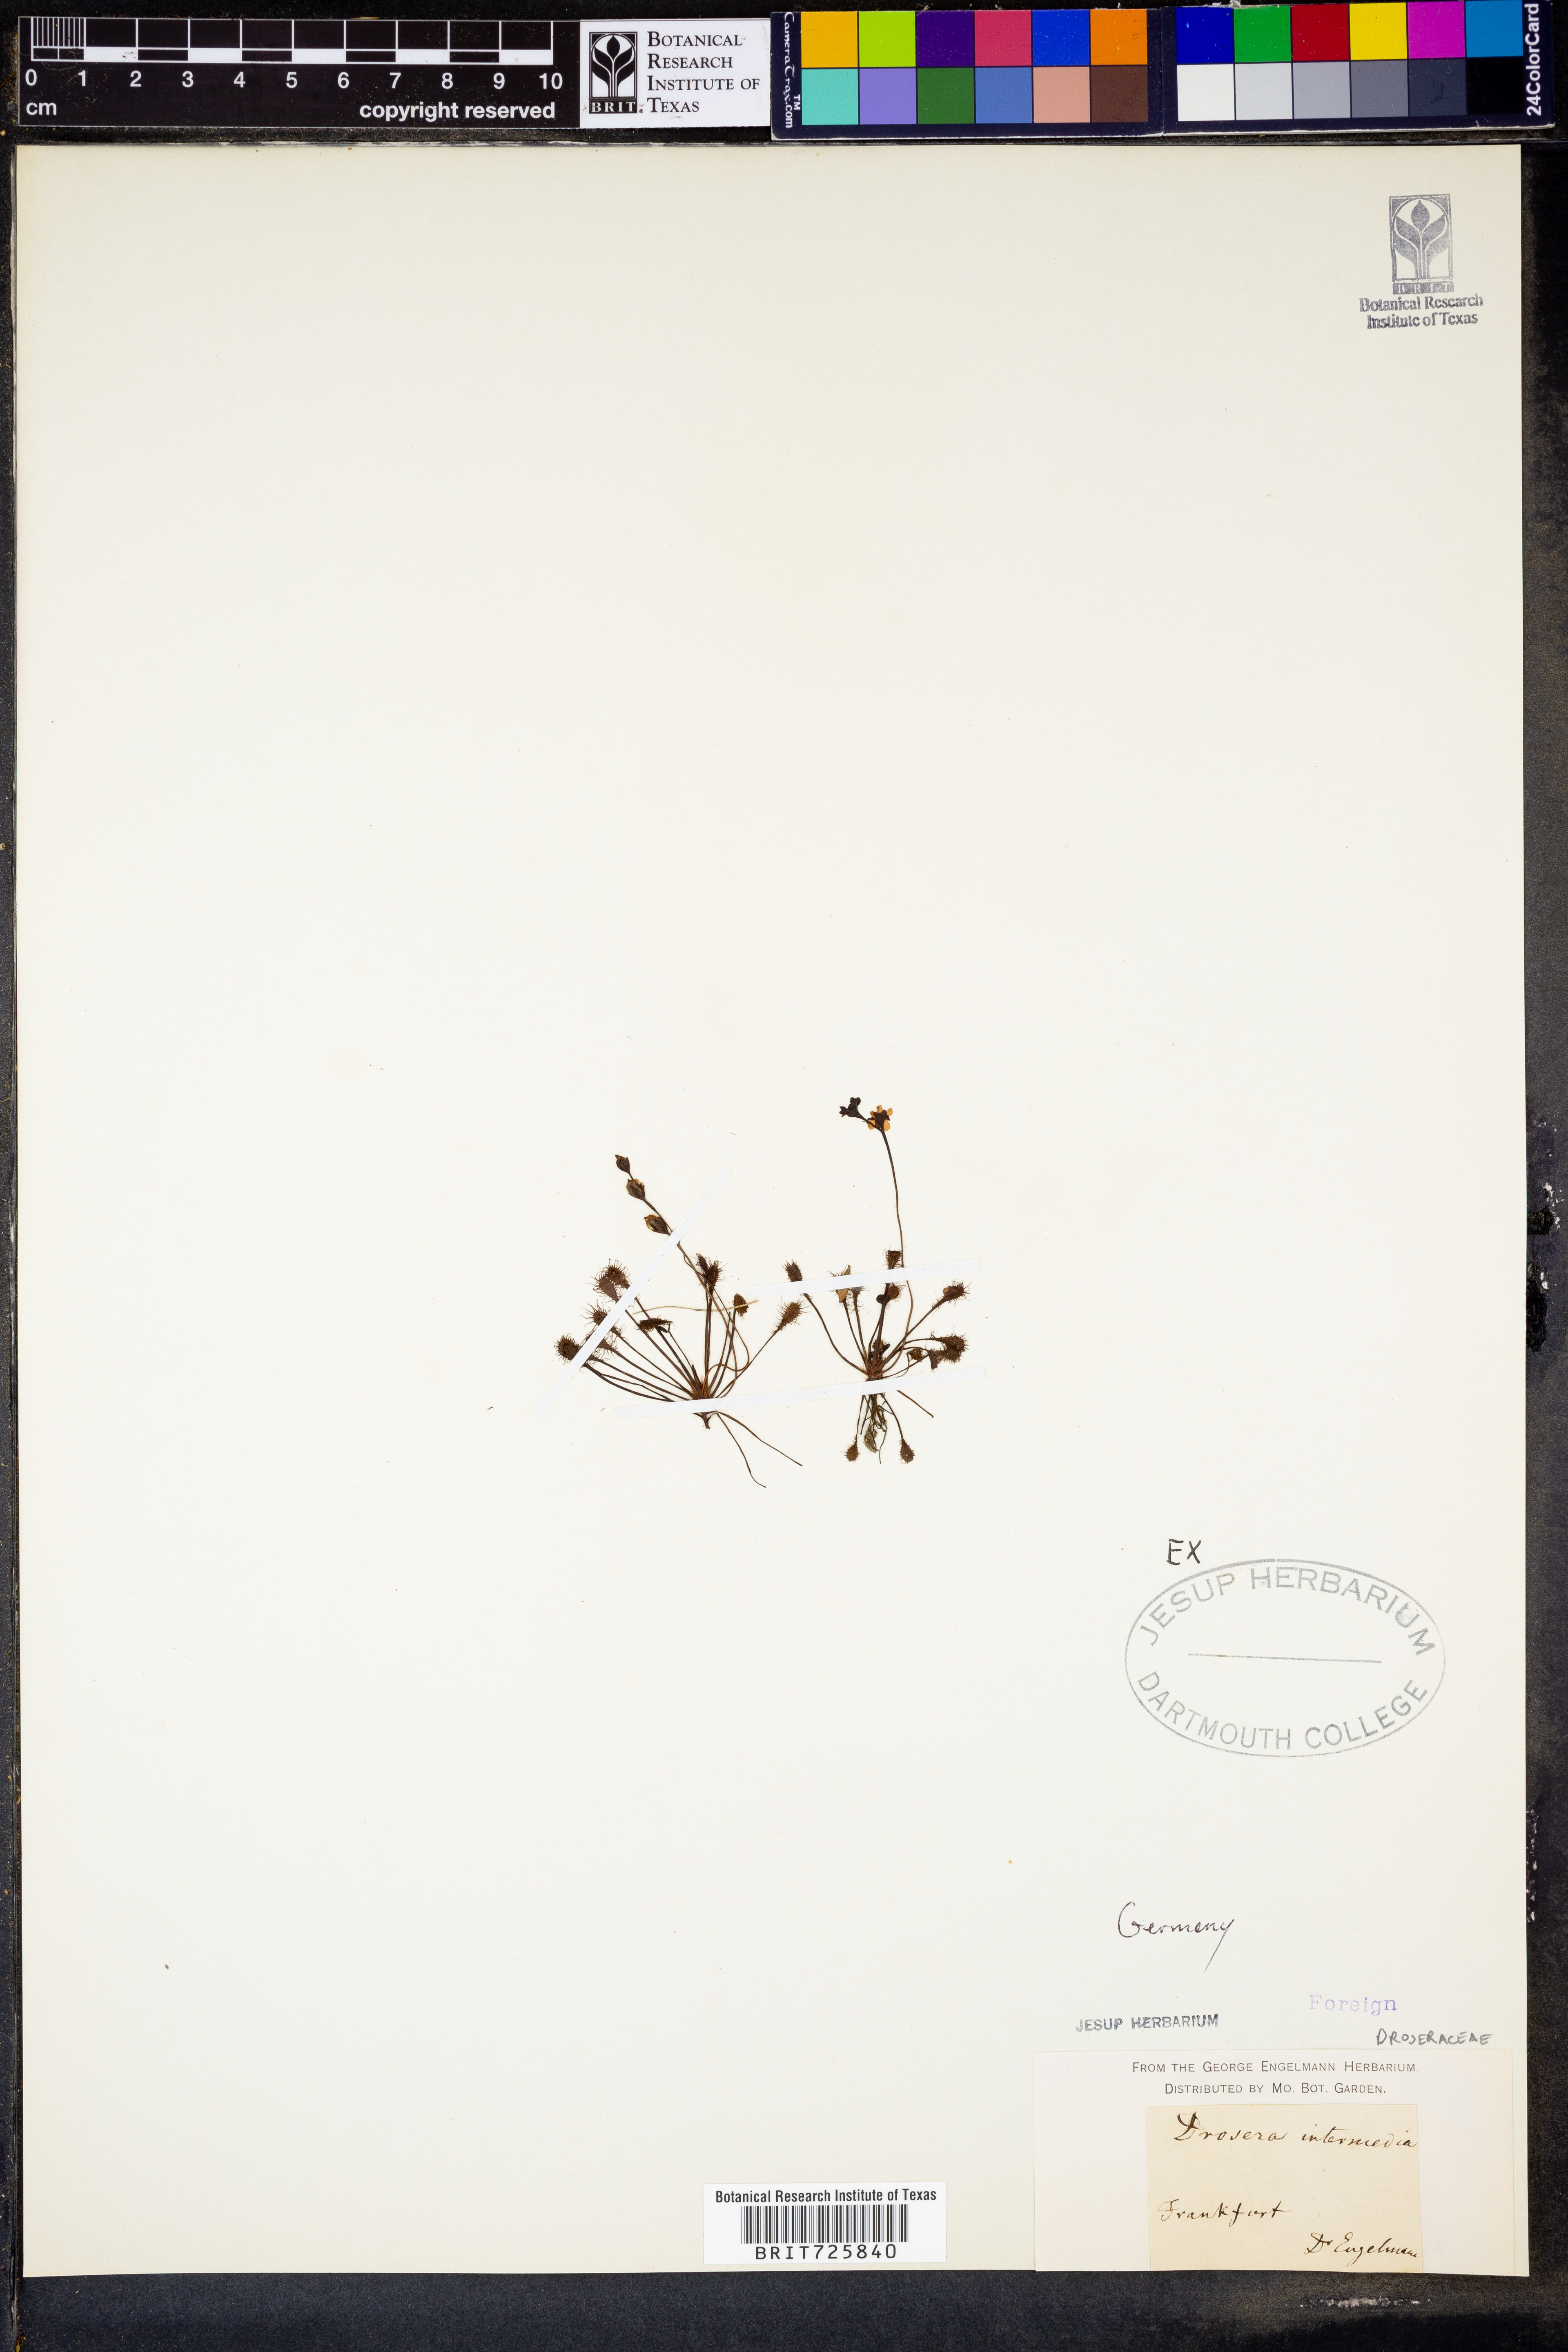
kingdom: Plantae
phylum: Tracheophyta
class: Magnoliopsida
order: Caryophyllales
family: Droseraceae
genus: Drosera
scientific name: Drosera intermedia
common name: Oblong-leaved sundew
